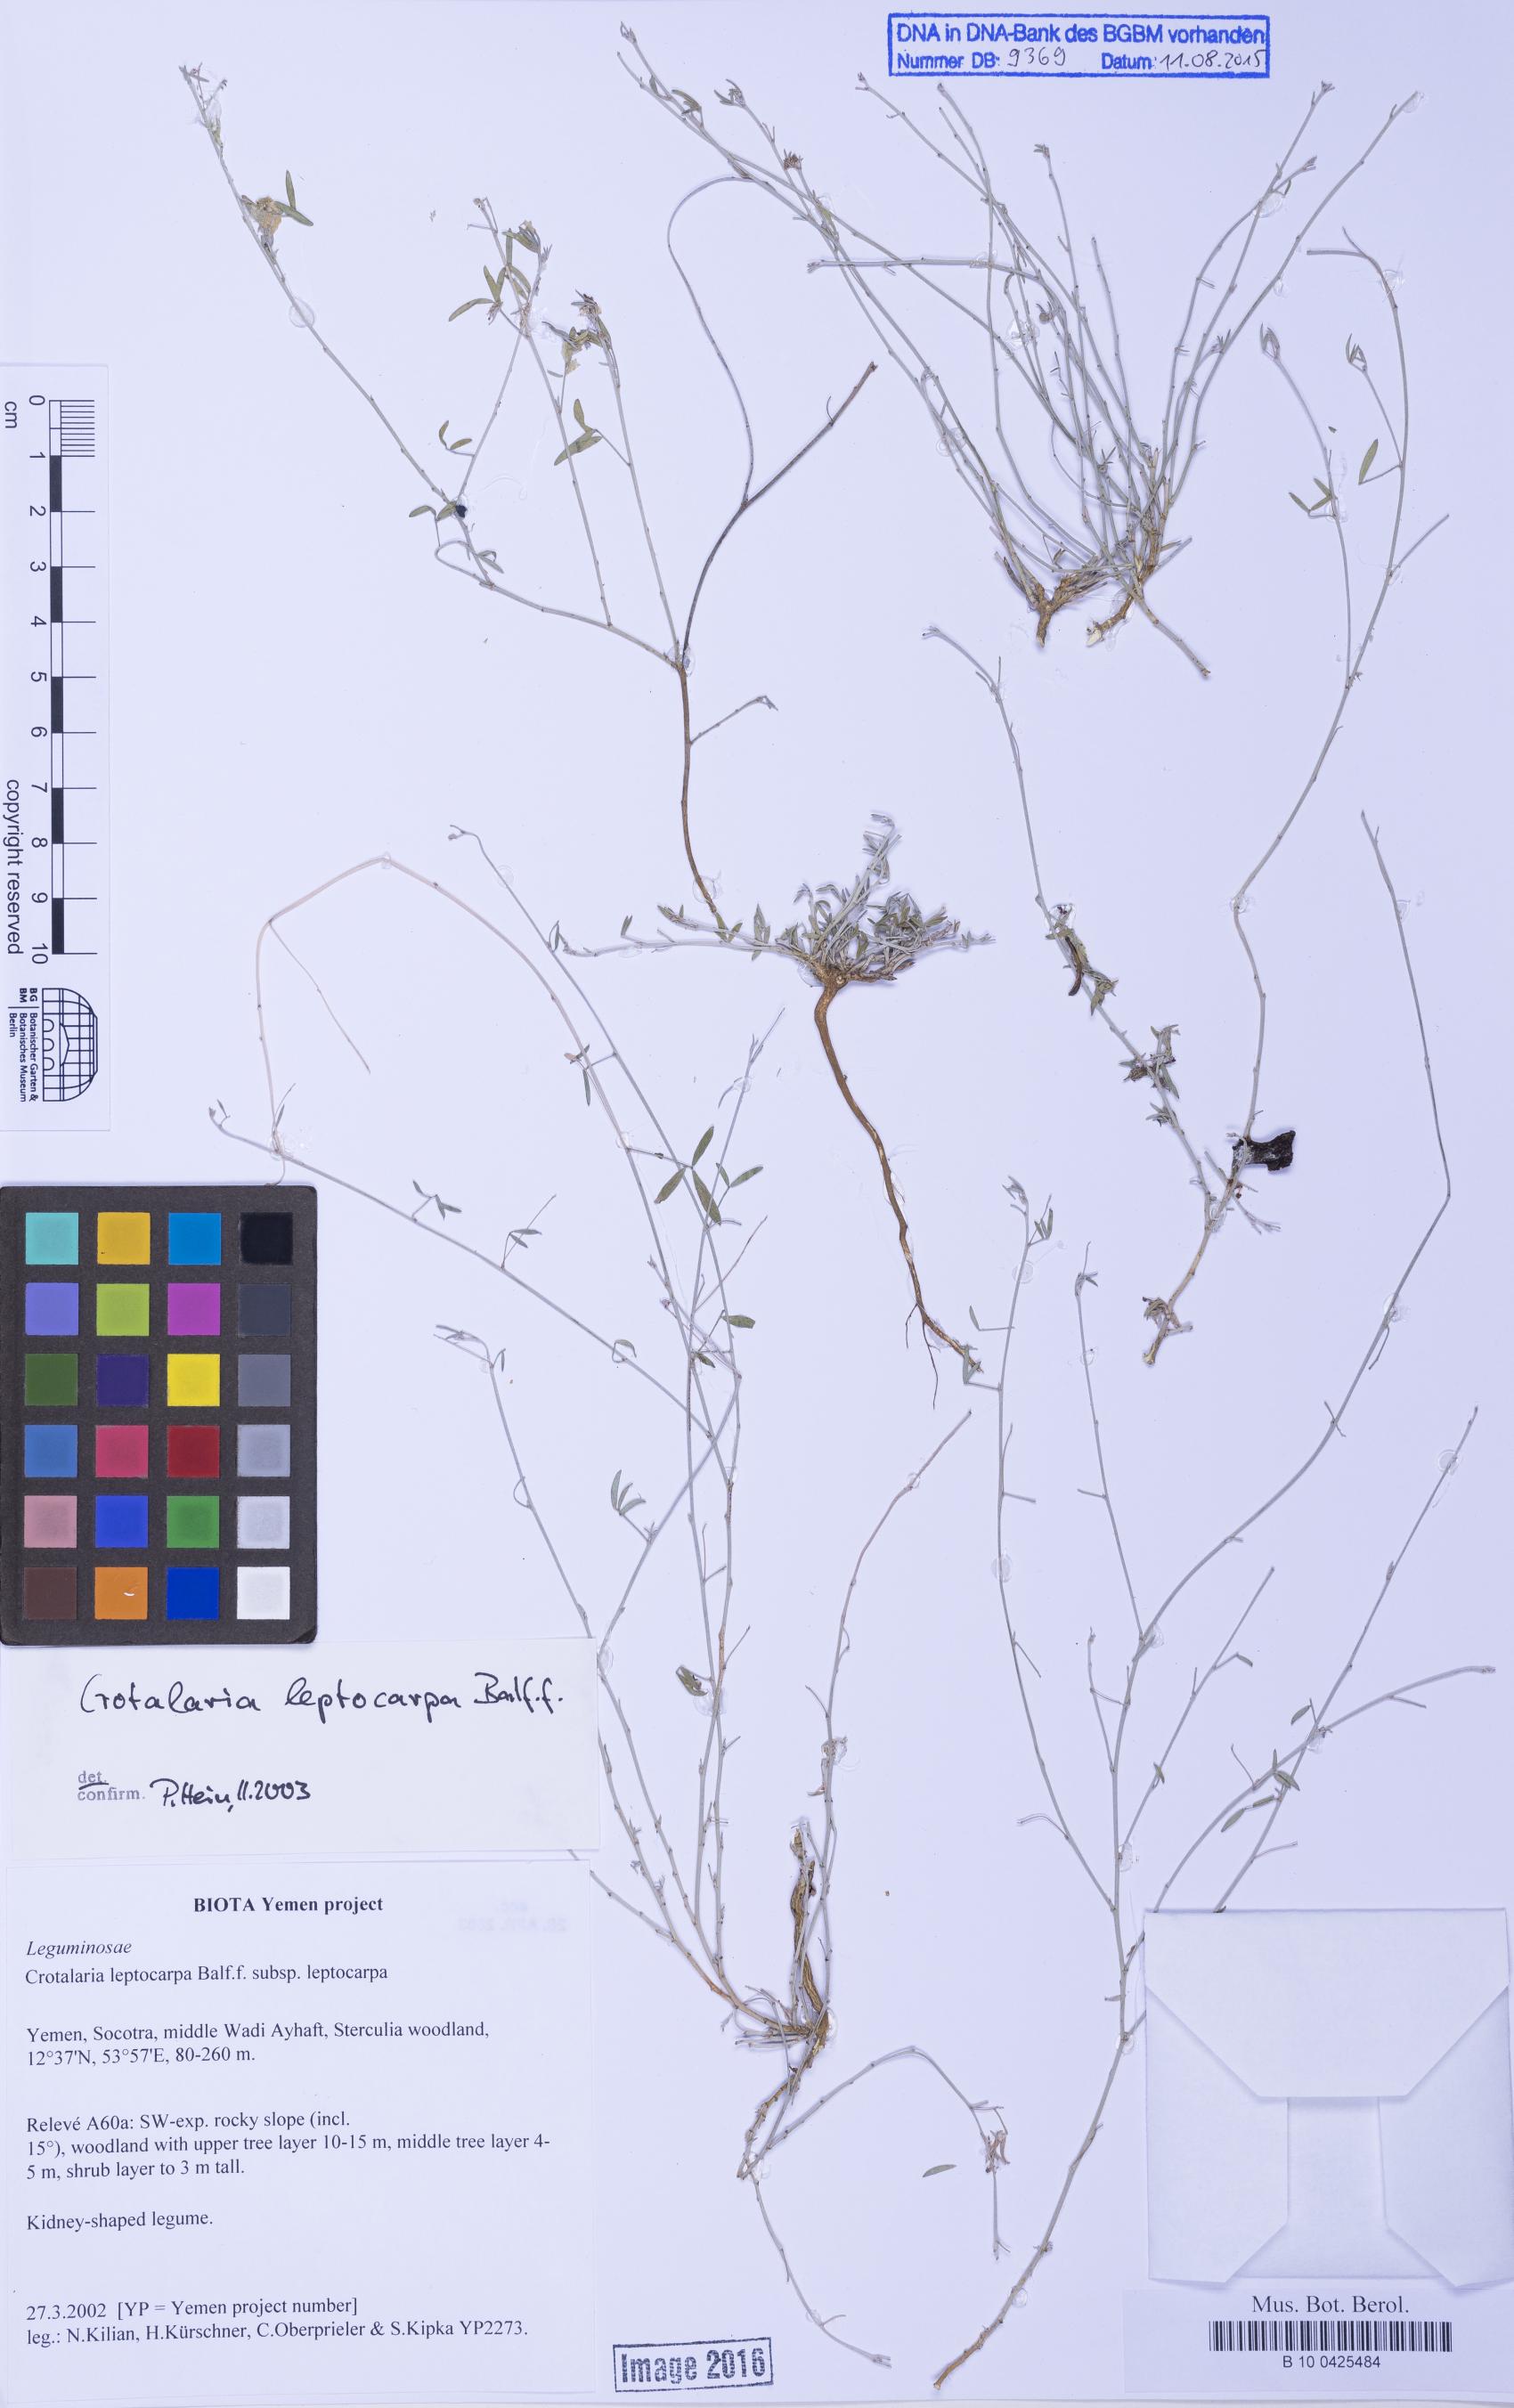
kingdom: Plantae
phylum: Tracheophyta
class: Magnoliopsida
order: Fabales
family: Fabaceae
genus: Crotalaria
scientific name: Crotalaria leptocarpa
